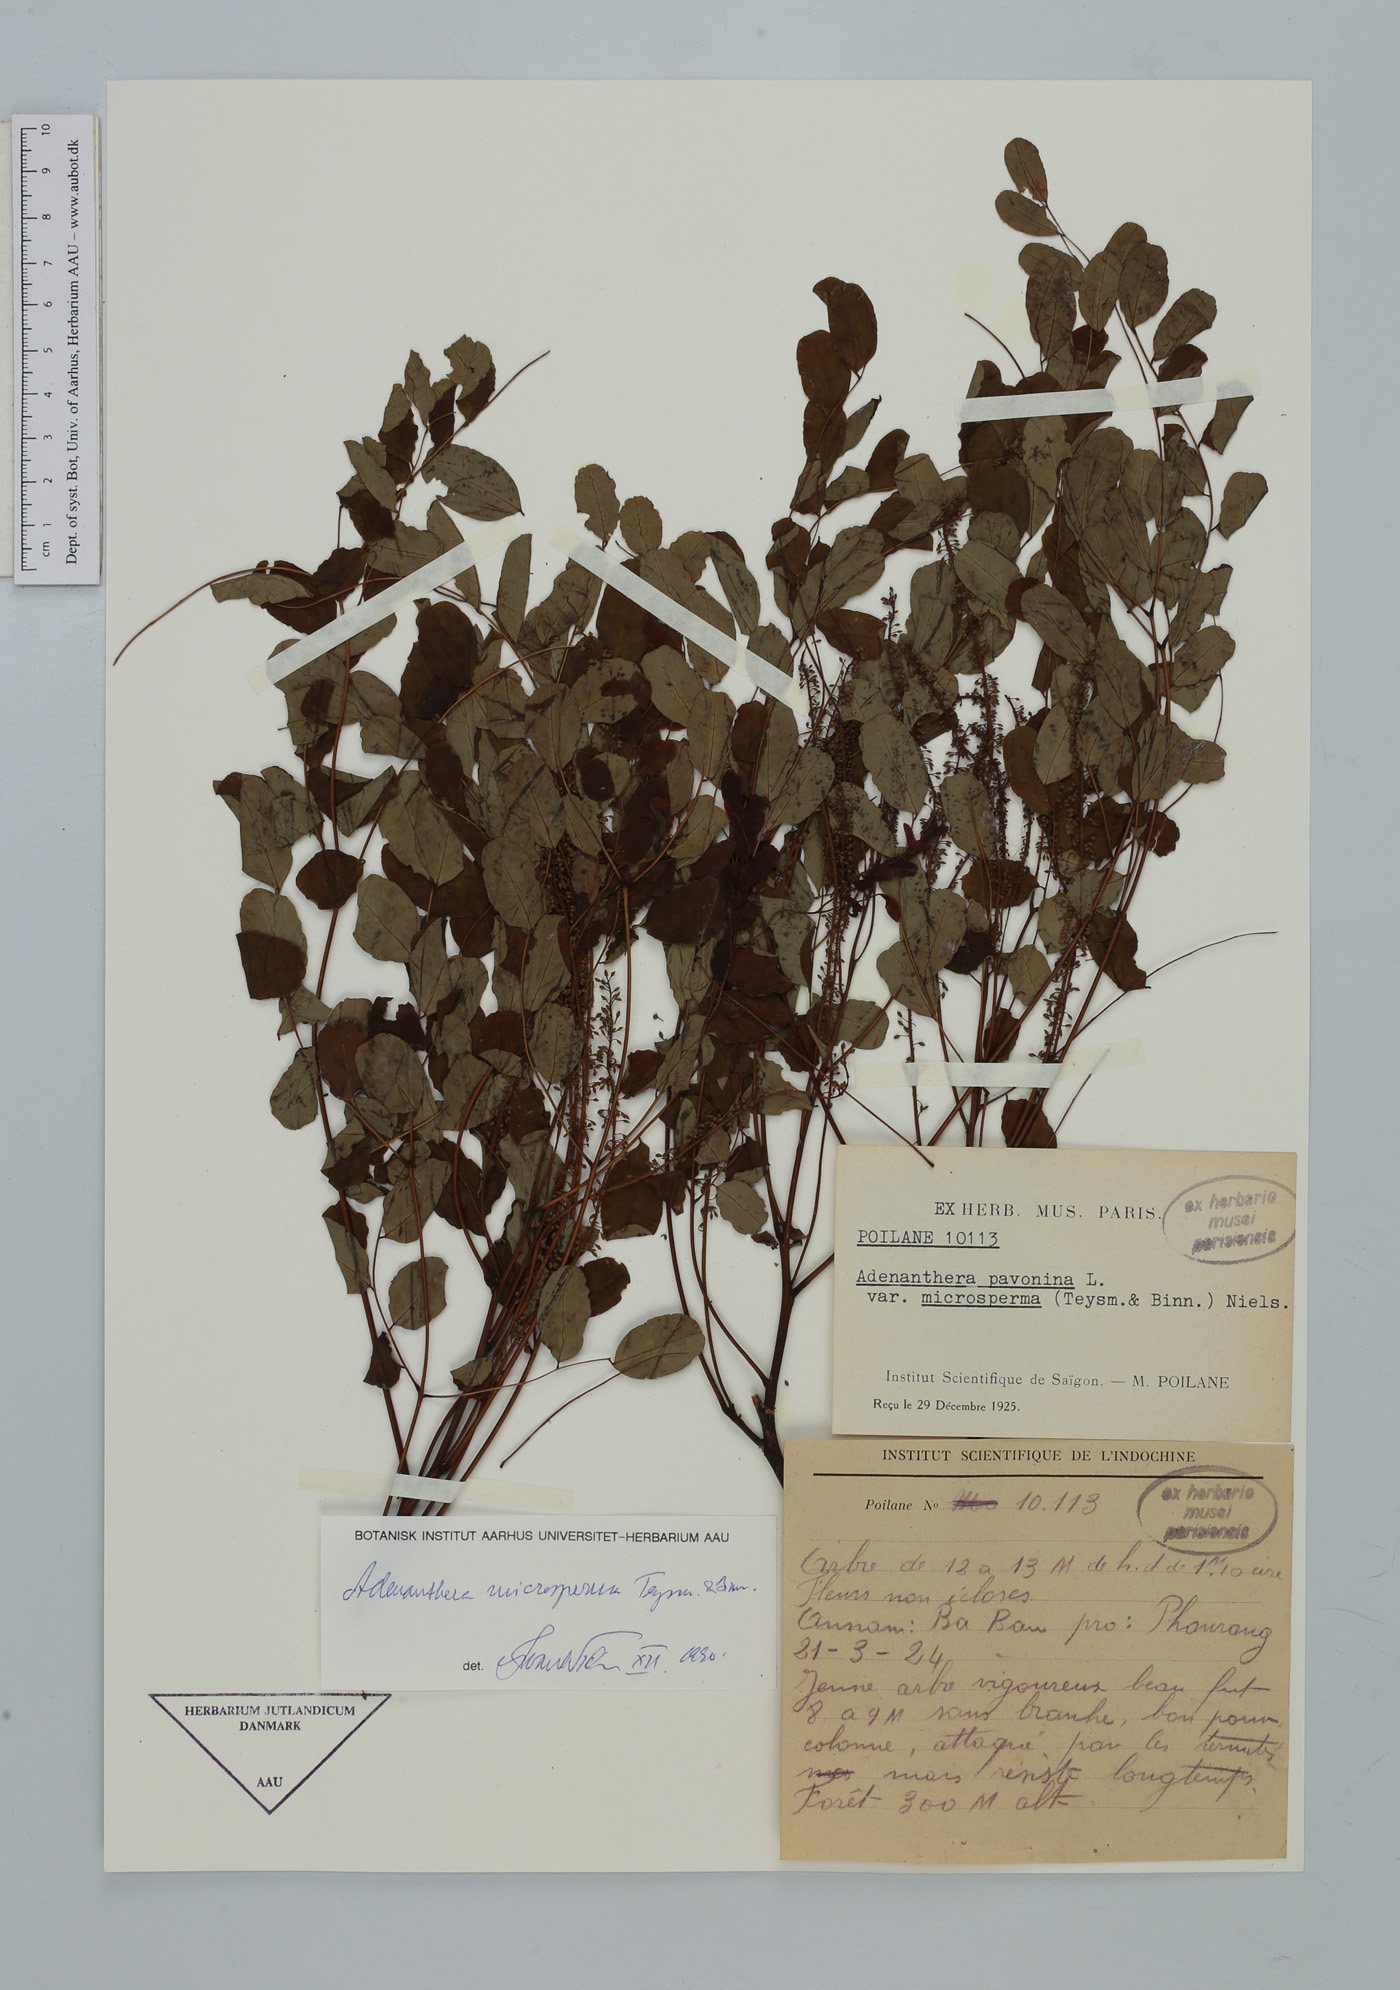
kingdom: Plantae
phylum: Tracheophyta
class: Magnoliopsida
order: Fabales
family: Fabaceae
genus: Adenanthera
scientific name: Adenanthera microsperma
